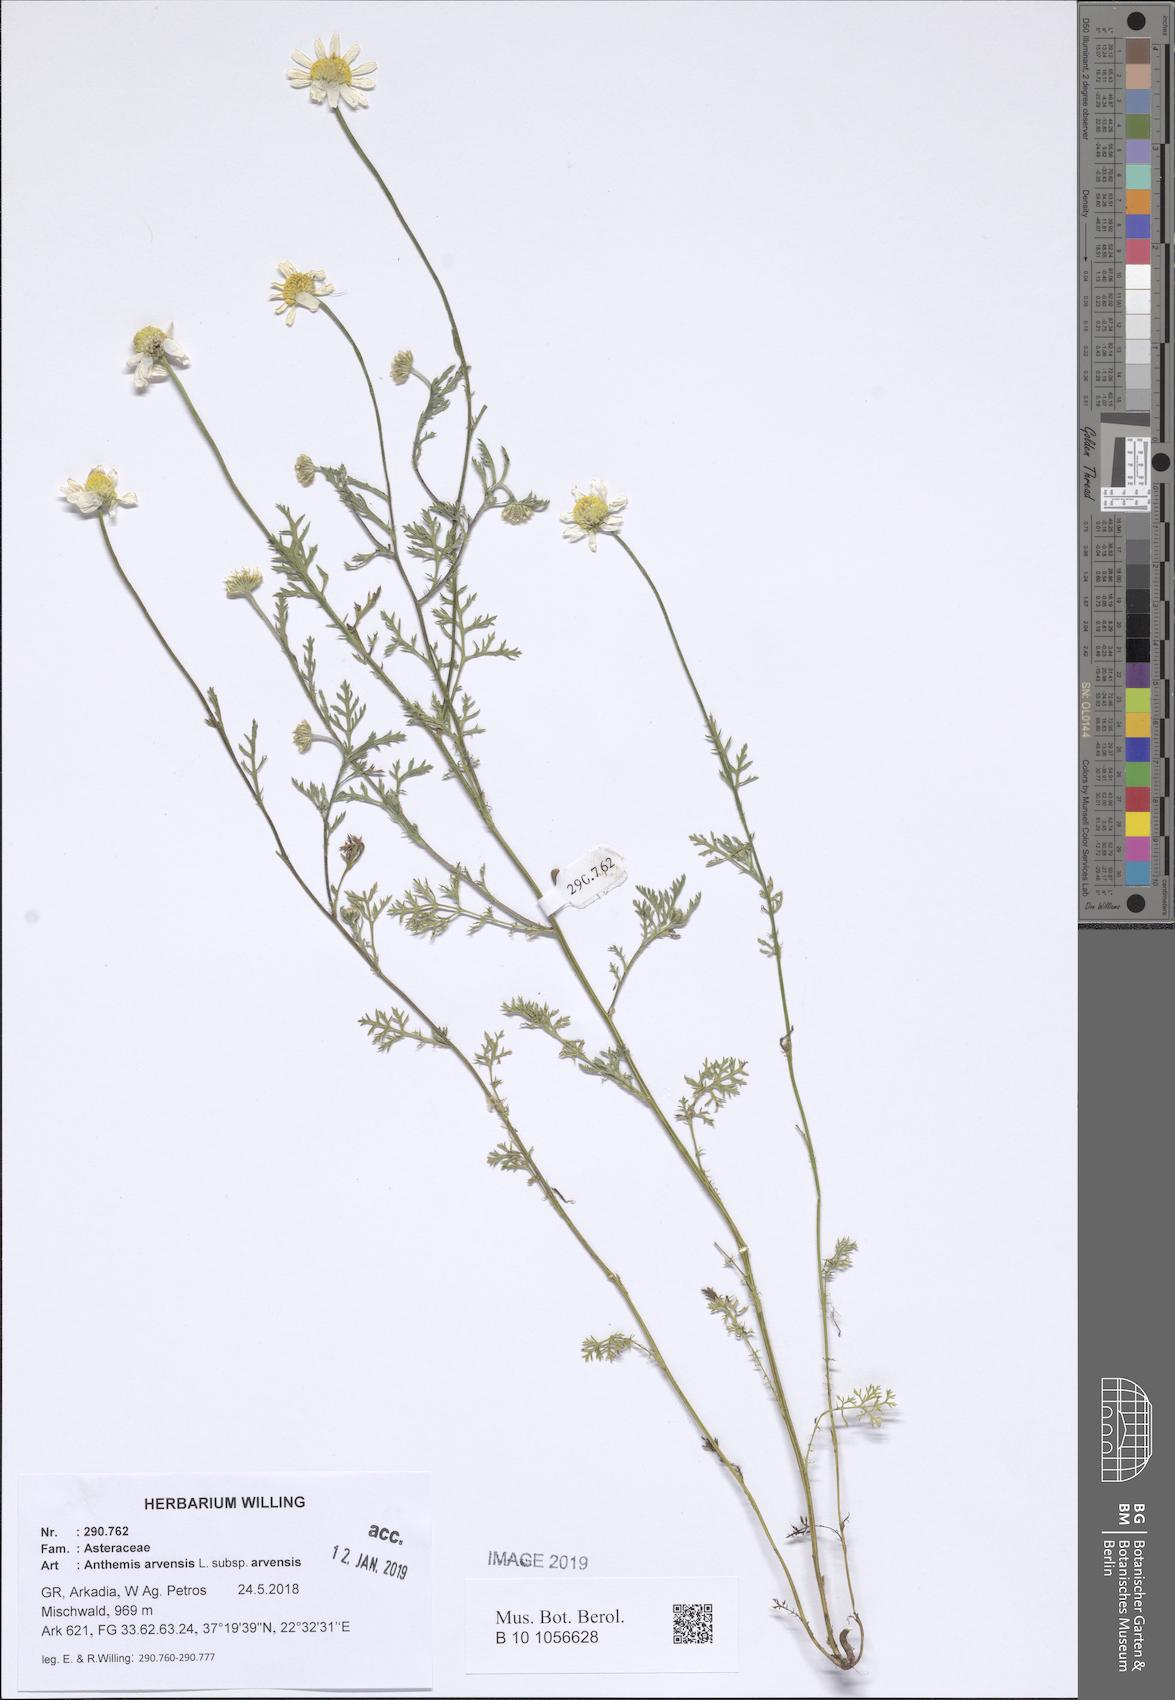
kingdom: Plantae
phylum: Tracheophyta
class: Magnoliopsida
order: Asterales
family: Asteraceae
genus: Anthemis
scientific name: Anthemis arvensis
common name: Corn chamomile
